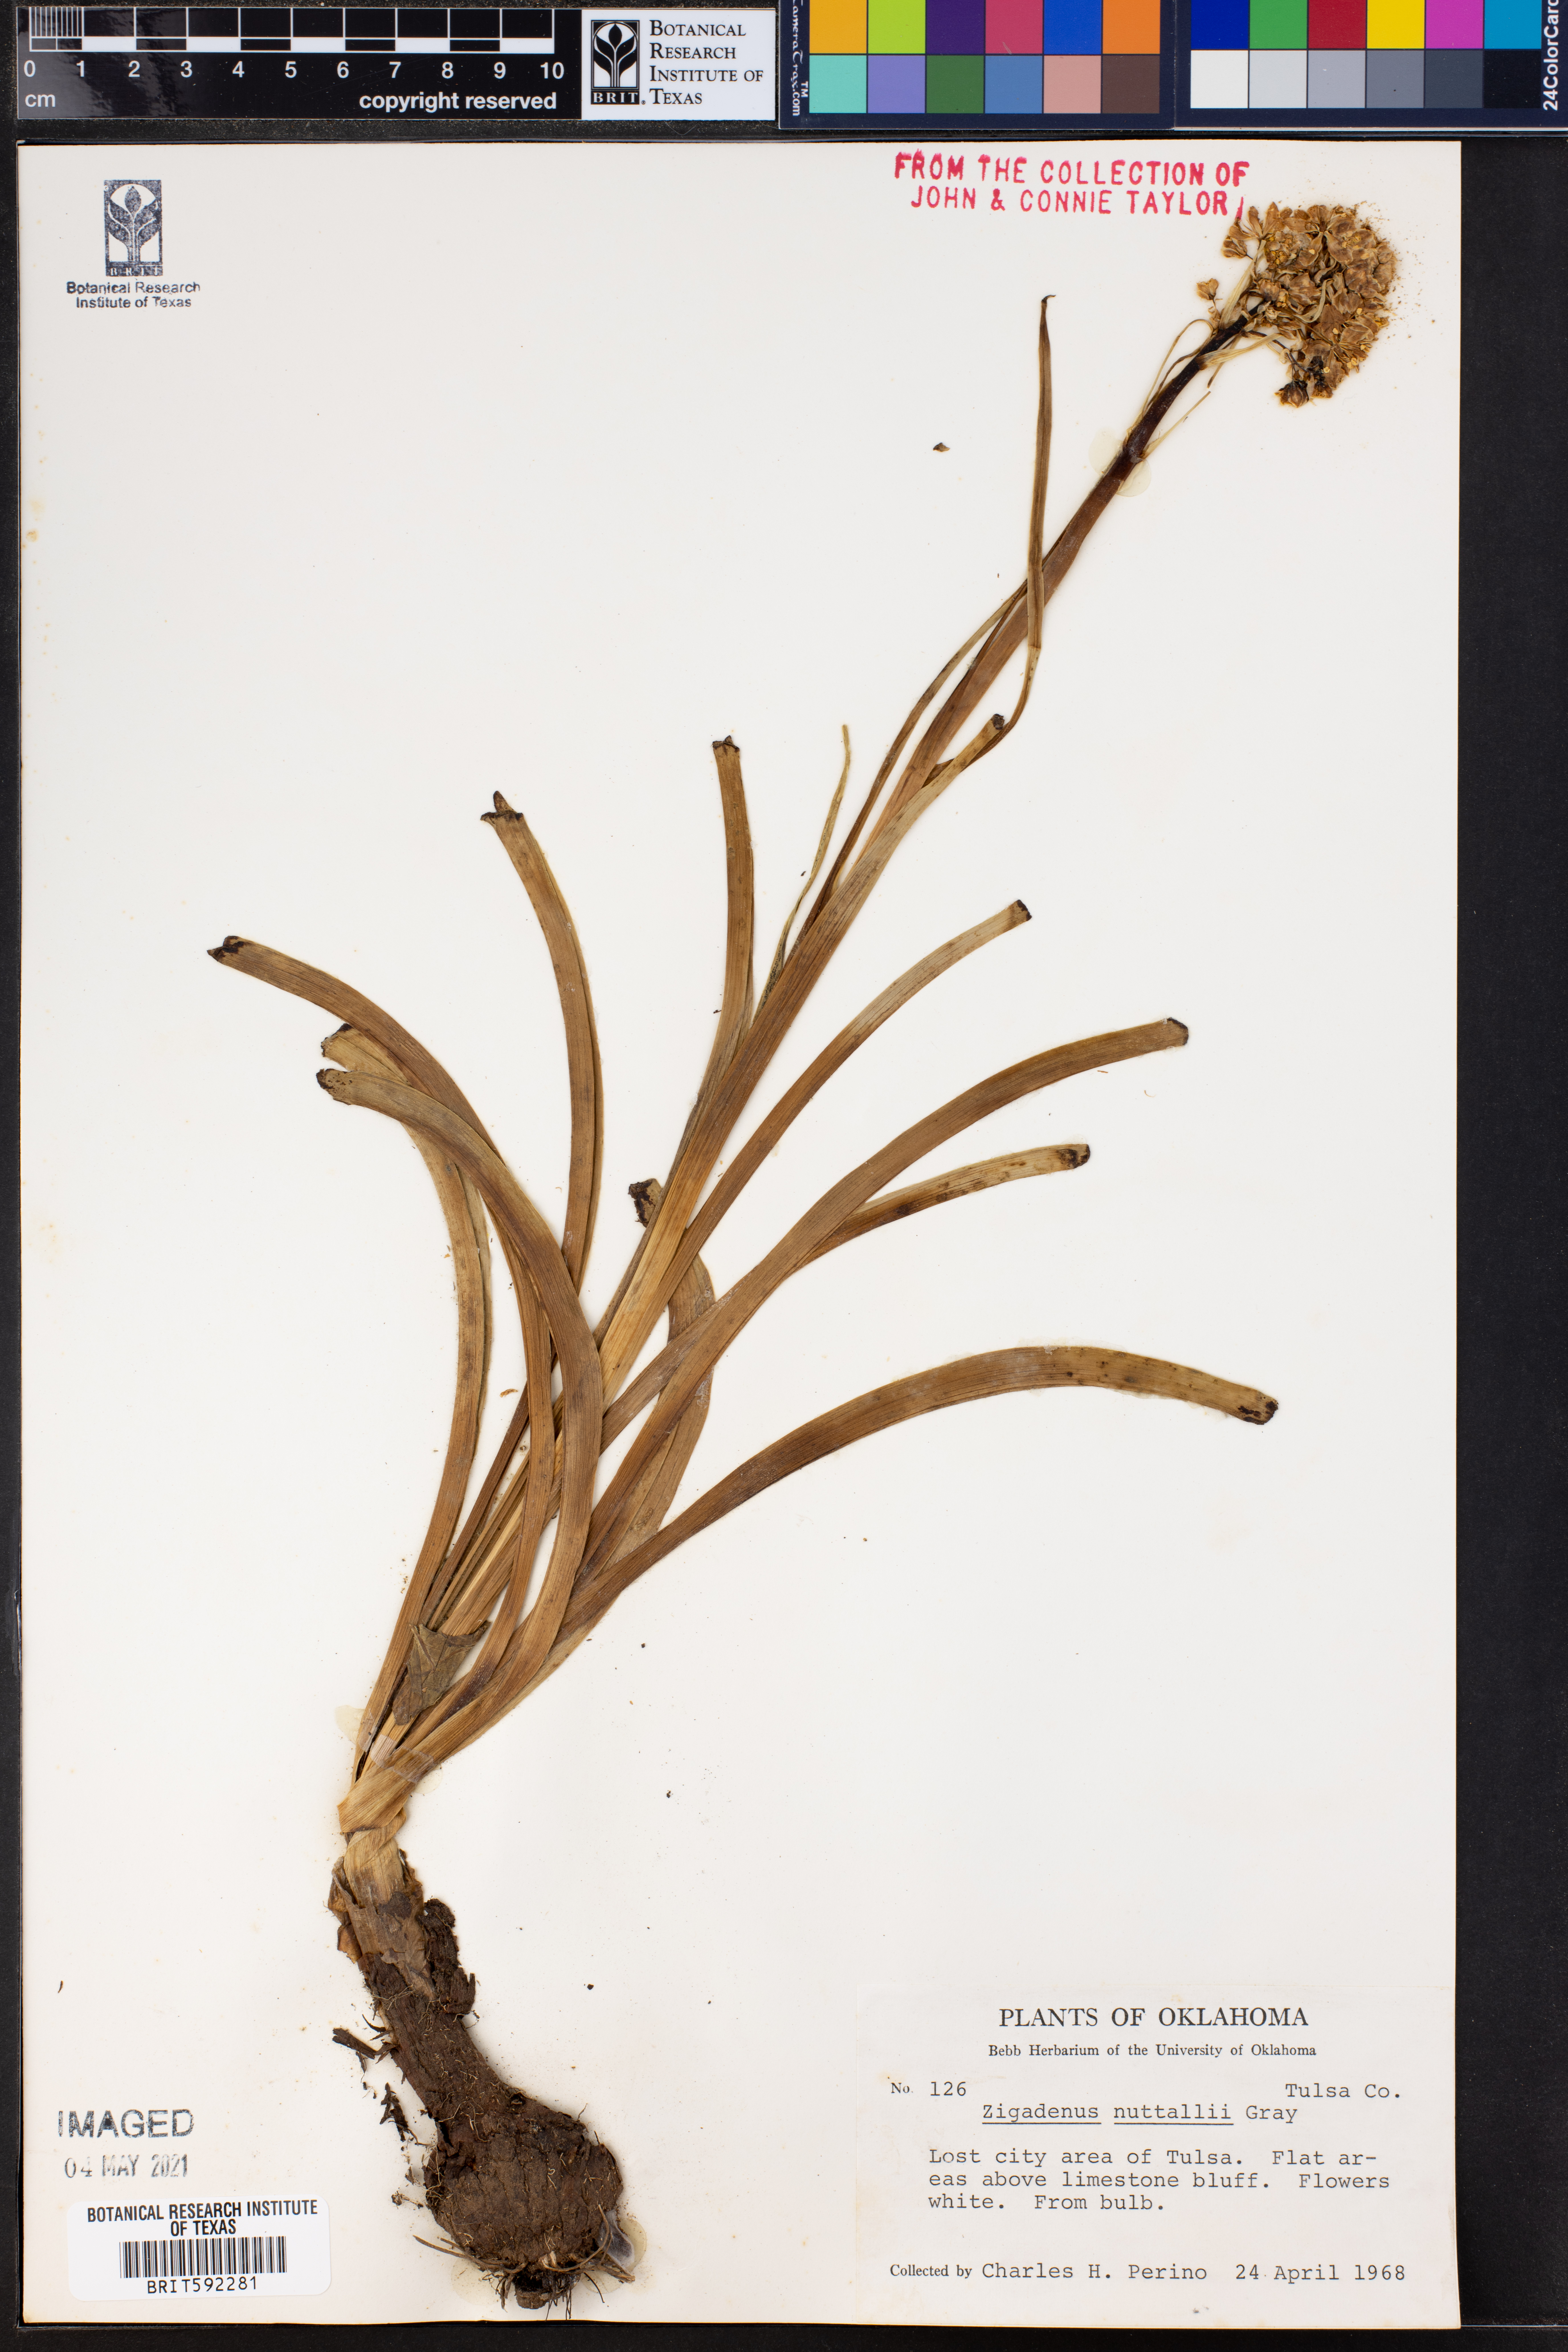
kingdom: Plantae
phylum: Tracheophyta
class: Liliopsida
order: Liliales
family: Melanthiaceae
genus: Toxicoscordion
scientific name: Toxicoscordion nuttallii
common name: Poison sego
